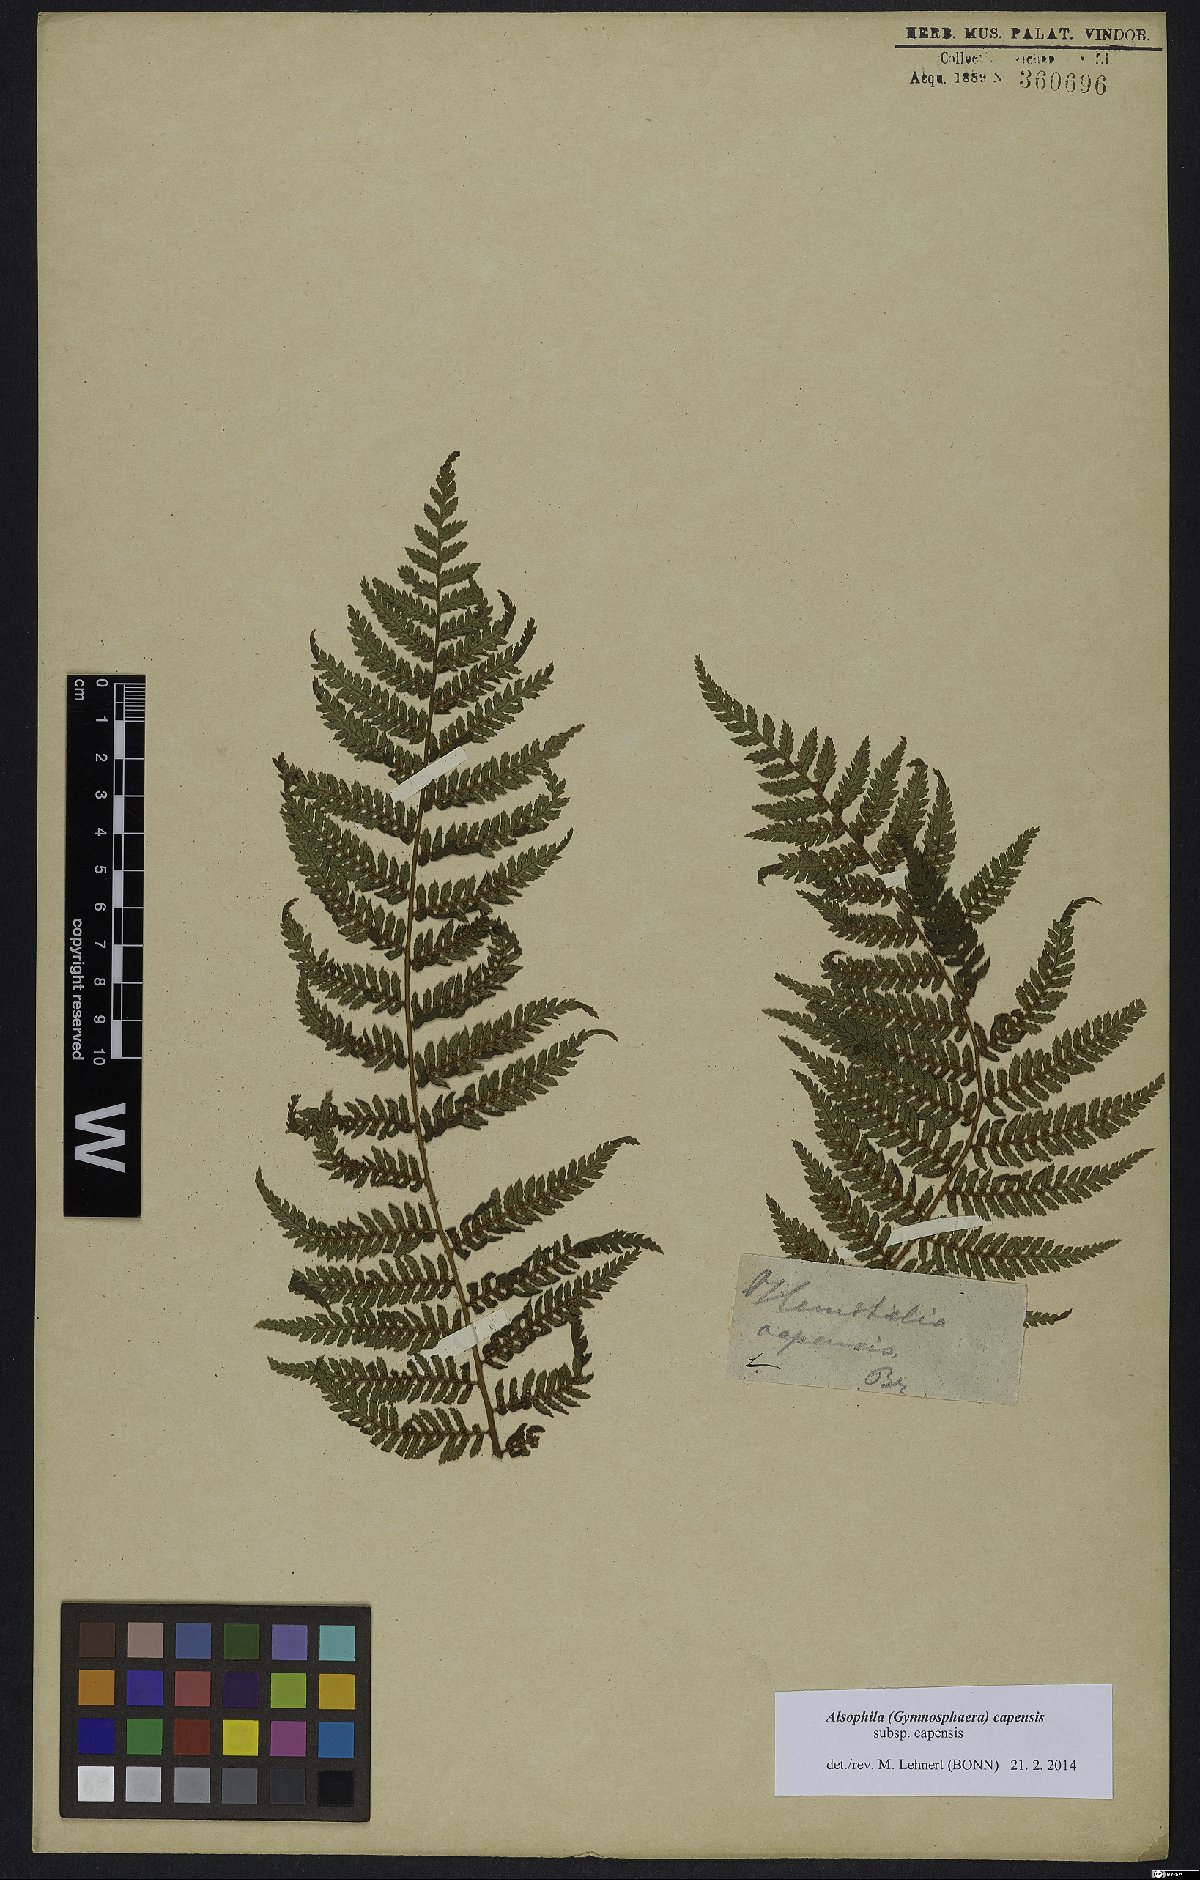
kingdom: Plantae
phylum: Tracheophyta
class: Polypodiopsida
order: Cyatheales
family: Cyatheaceae
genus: Gymnosphaera
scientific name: Gymnosphaera capensis
